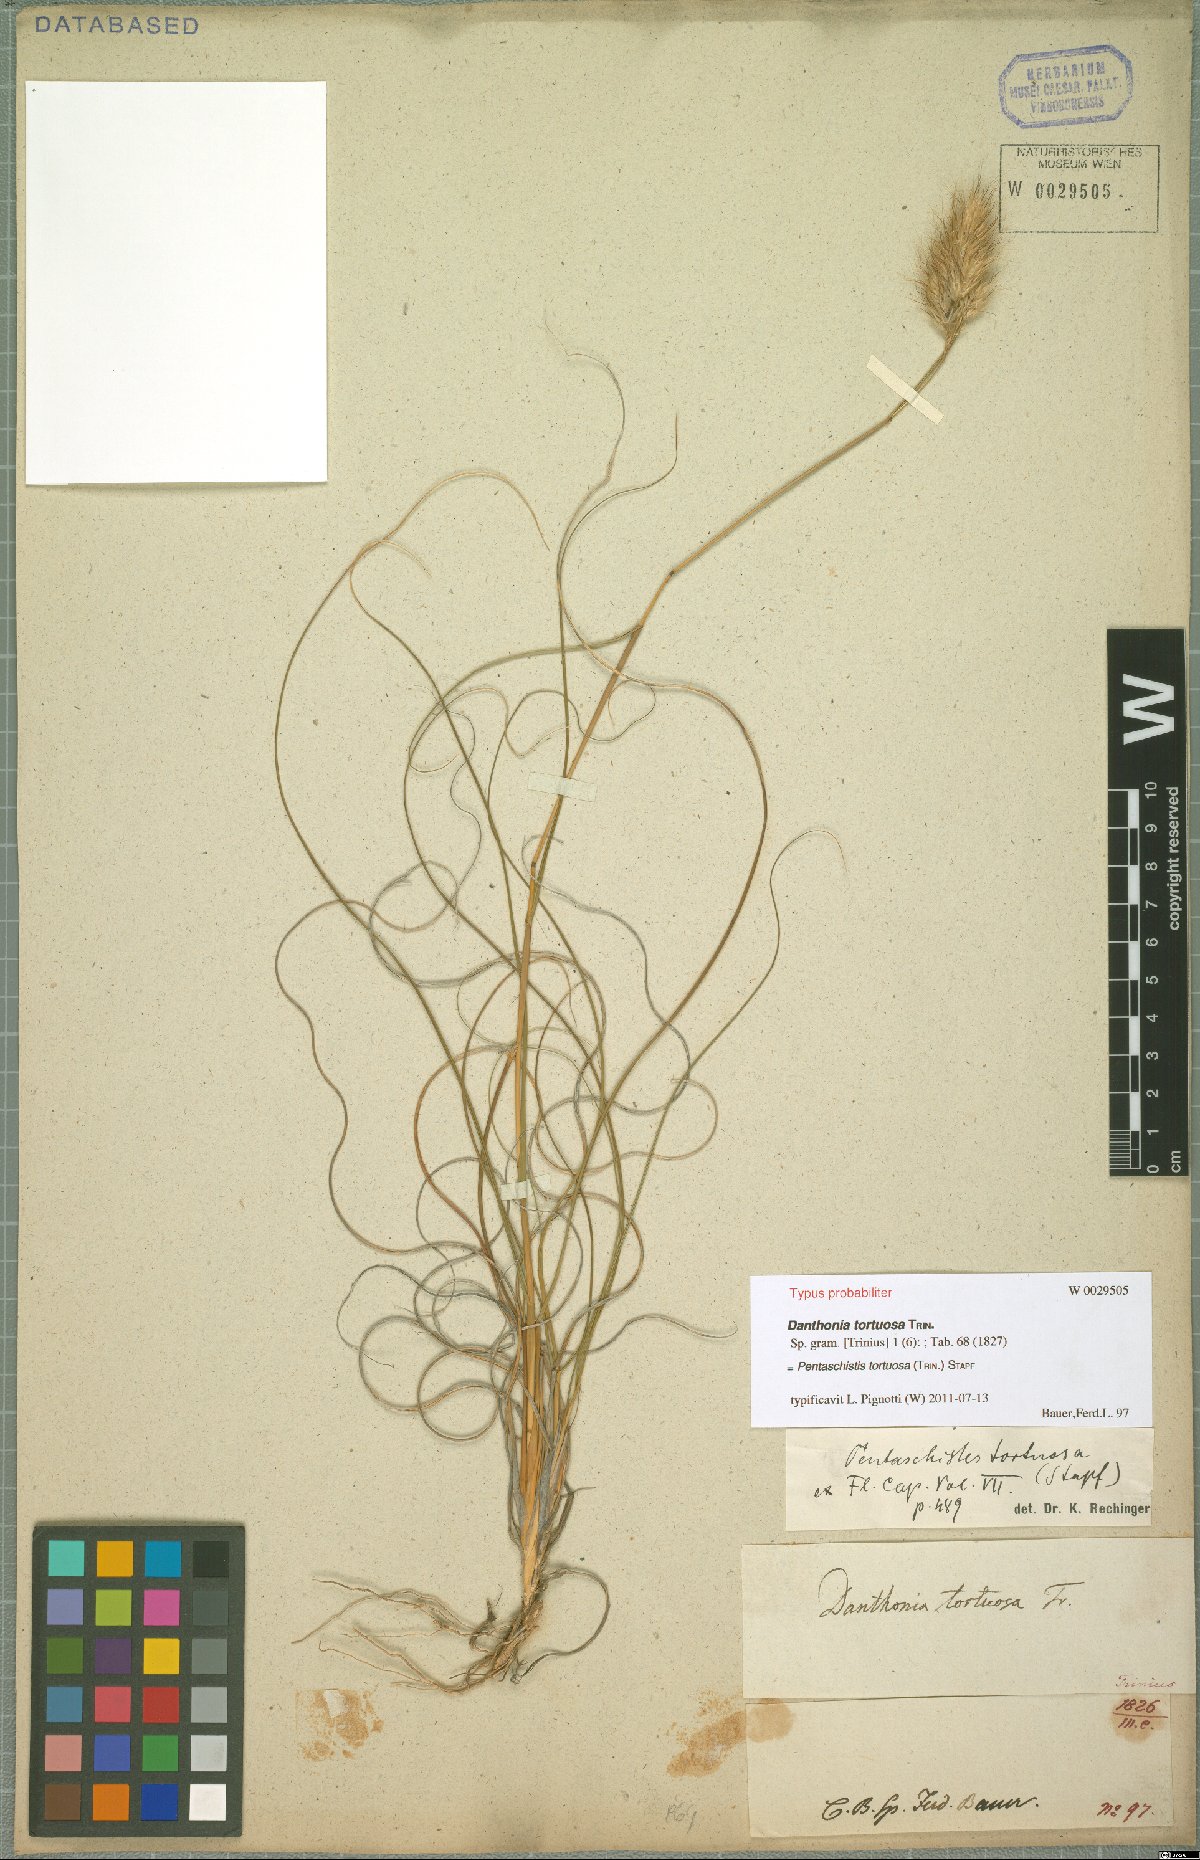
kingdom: Plantae
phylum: Tracheophyta
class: Liliopsida
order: Poales
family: Poaceae
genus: Pentameris
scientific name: Pentameris tortuosa
